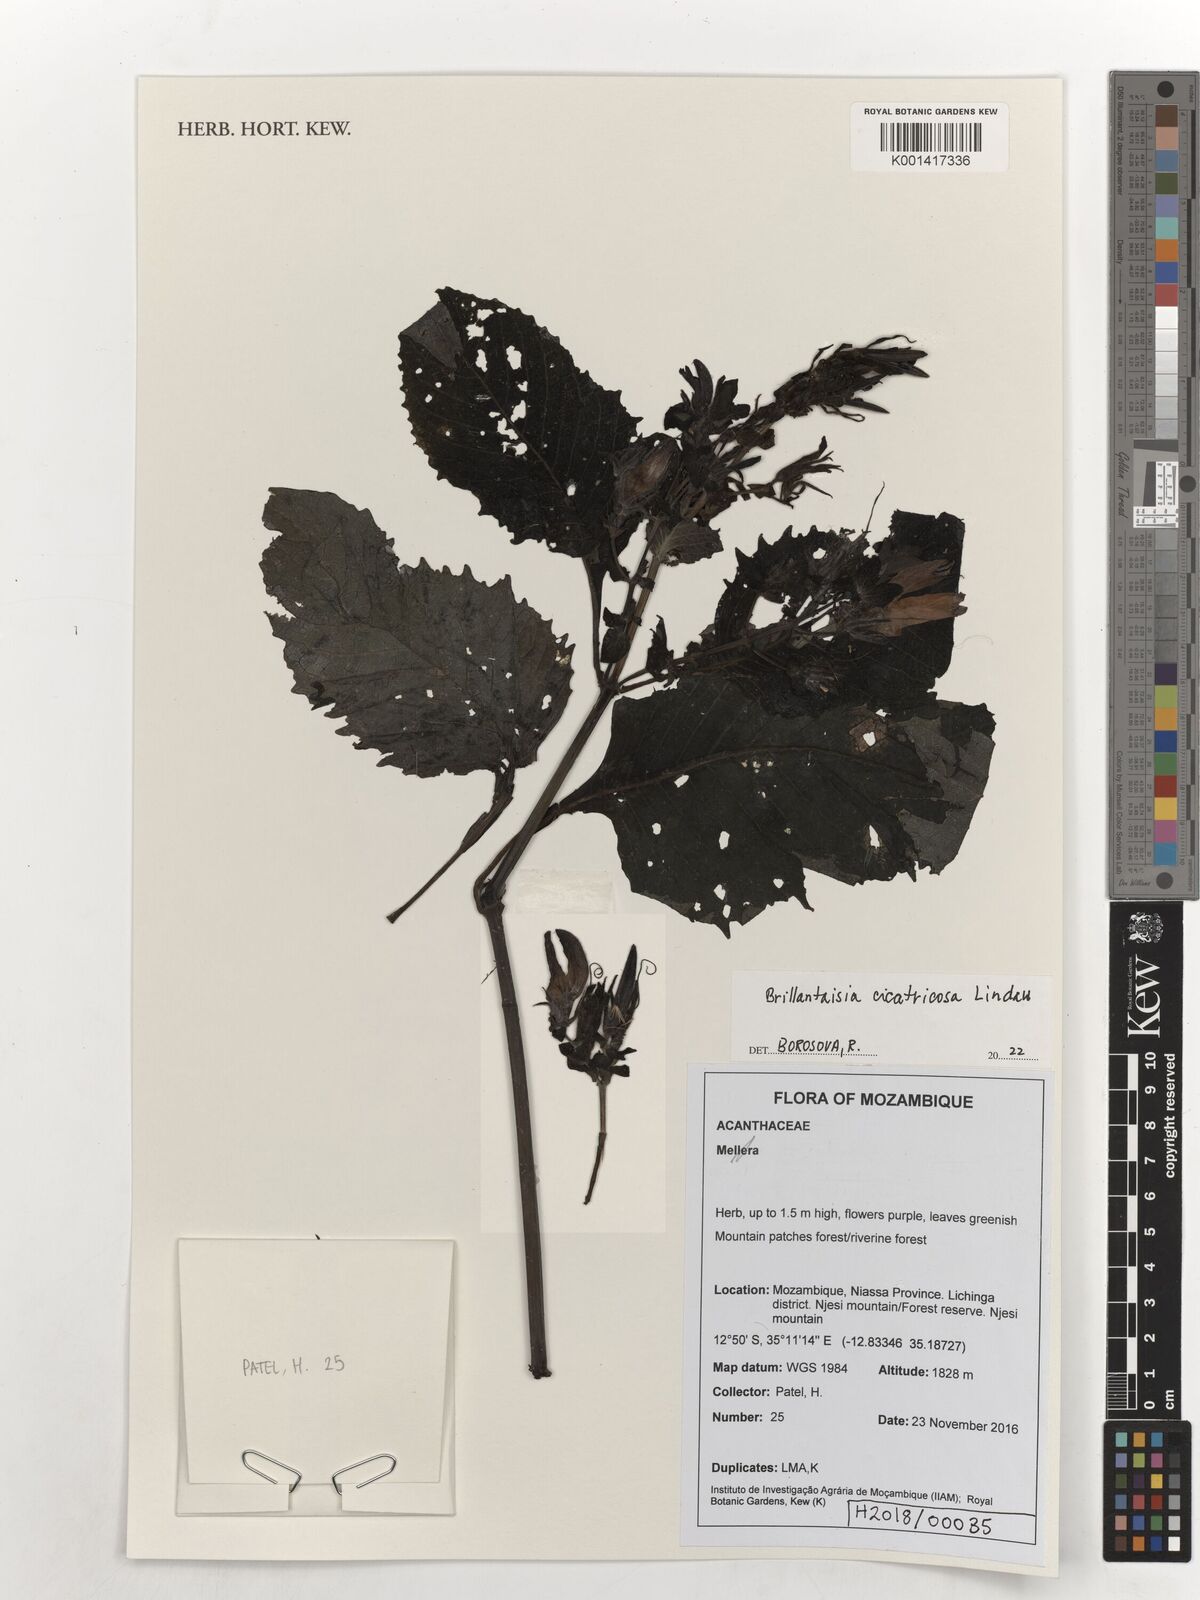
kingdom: Plantae
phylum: Tracheophyta
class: Magnoliopsida
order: Lamiales
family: Acanthaceae
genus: Brillantaisia
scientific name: Brillantaisia cicatricosa
